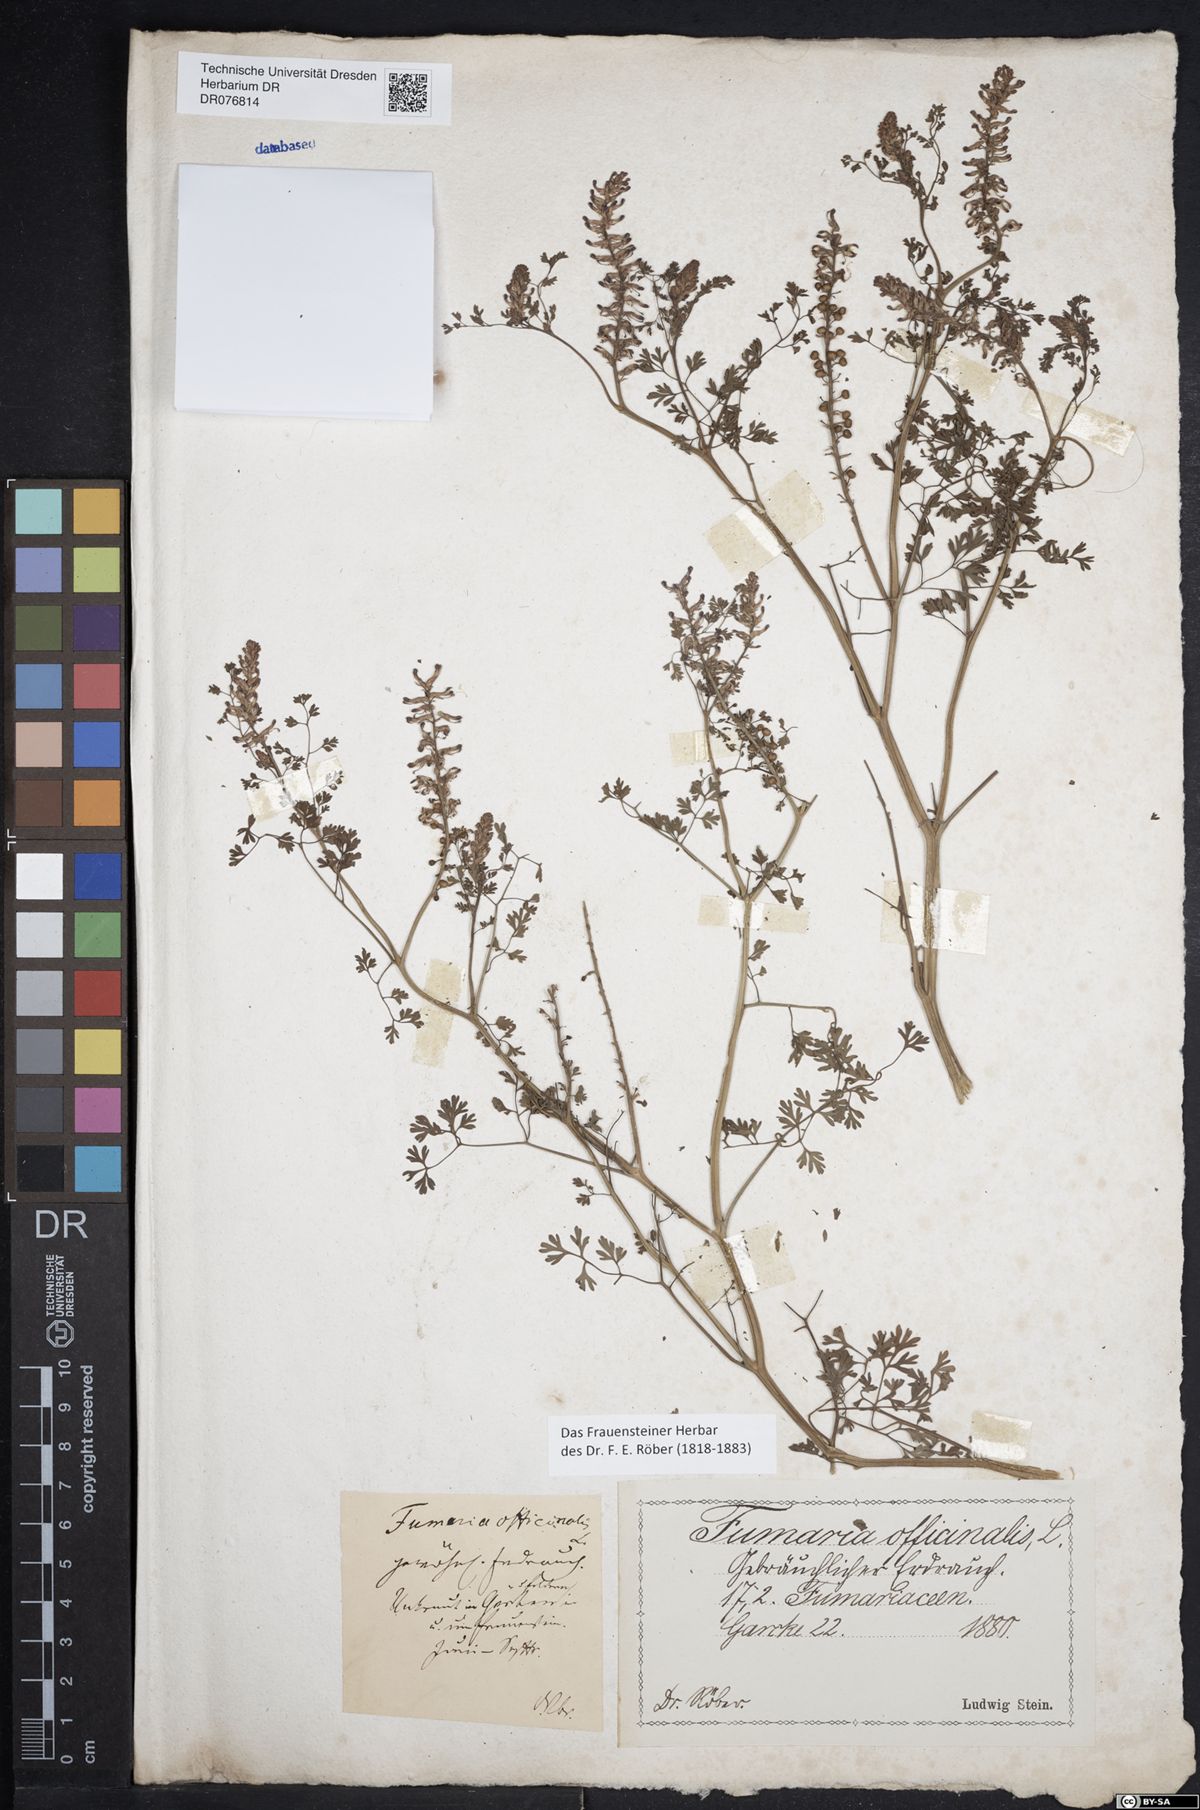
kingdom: Plantae
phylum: Tracheophyta
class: Magnoliopsida
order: Ranunculales
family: Papaveraceae
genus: Fumaria
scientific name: Fumaria officinalis
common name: Common fumitory
